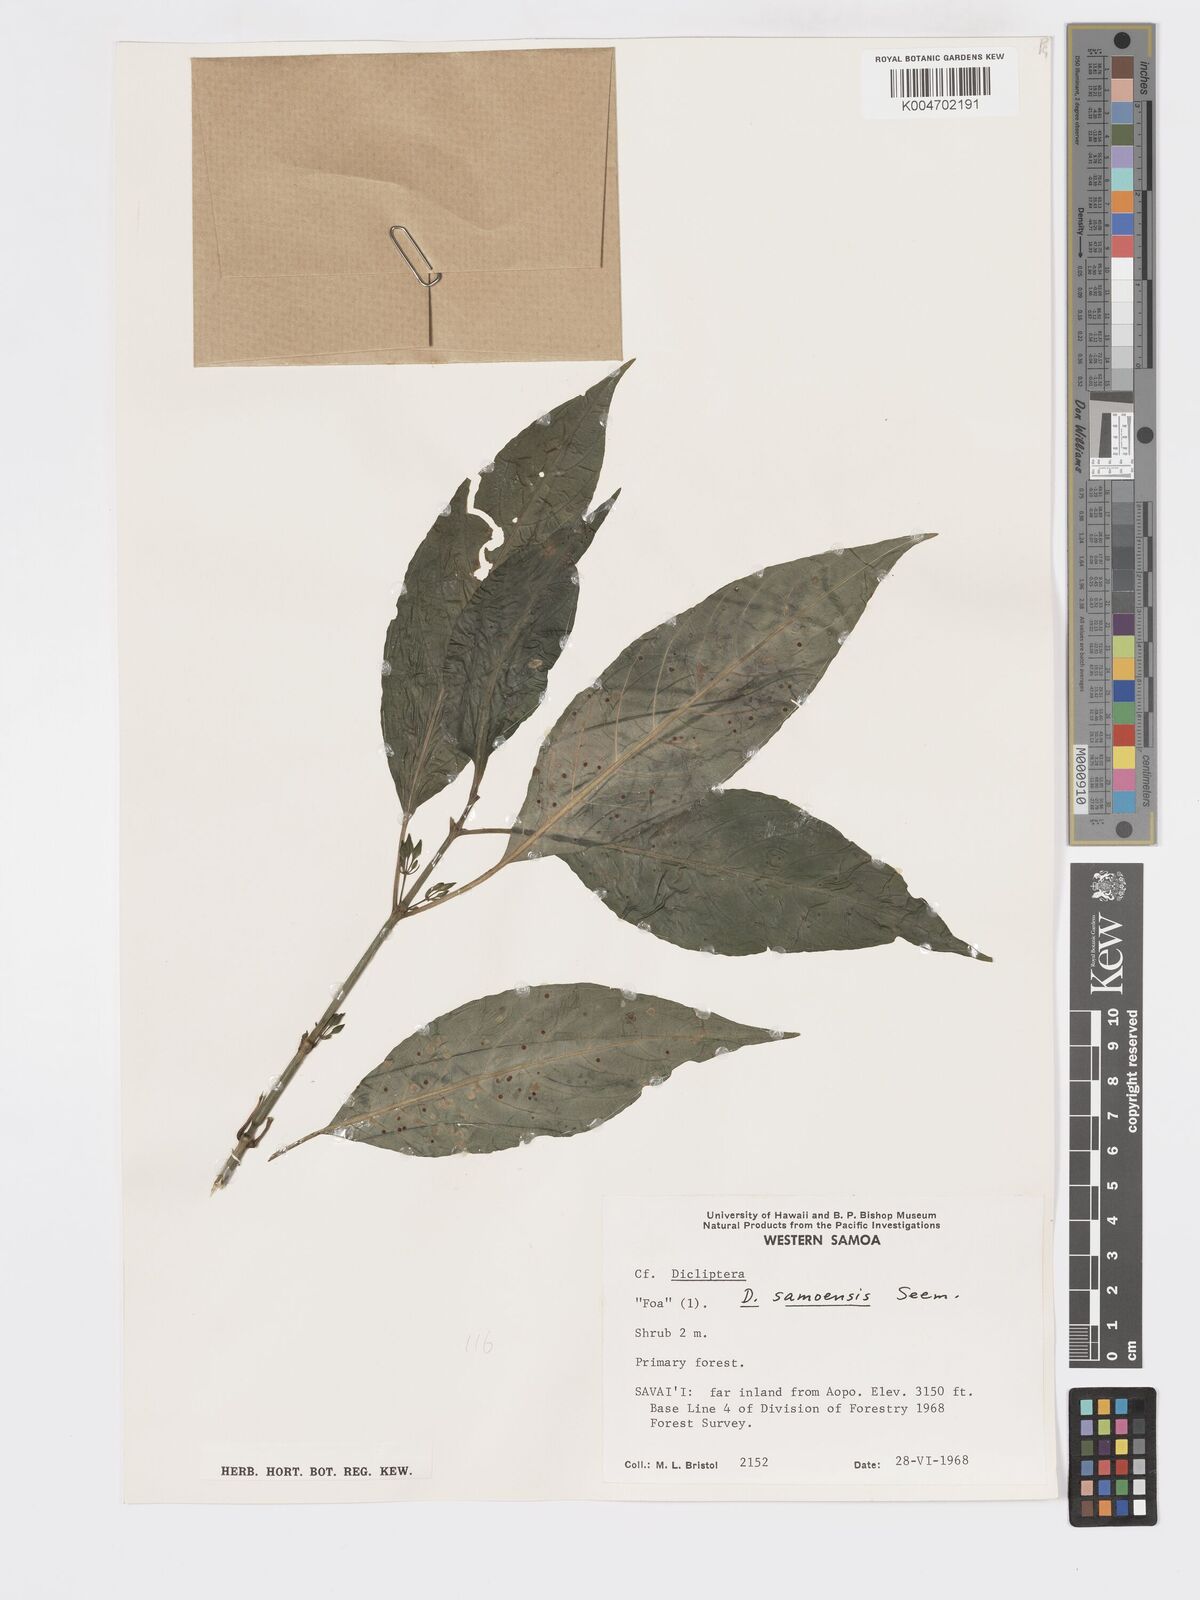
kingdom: Plantae
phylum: Tracheophyta
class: Magnoliopsida
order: Lamiales
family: Acanthaceae
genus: Dicliptera
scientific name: Dicliptera samoensis
